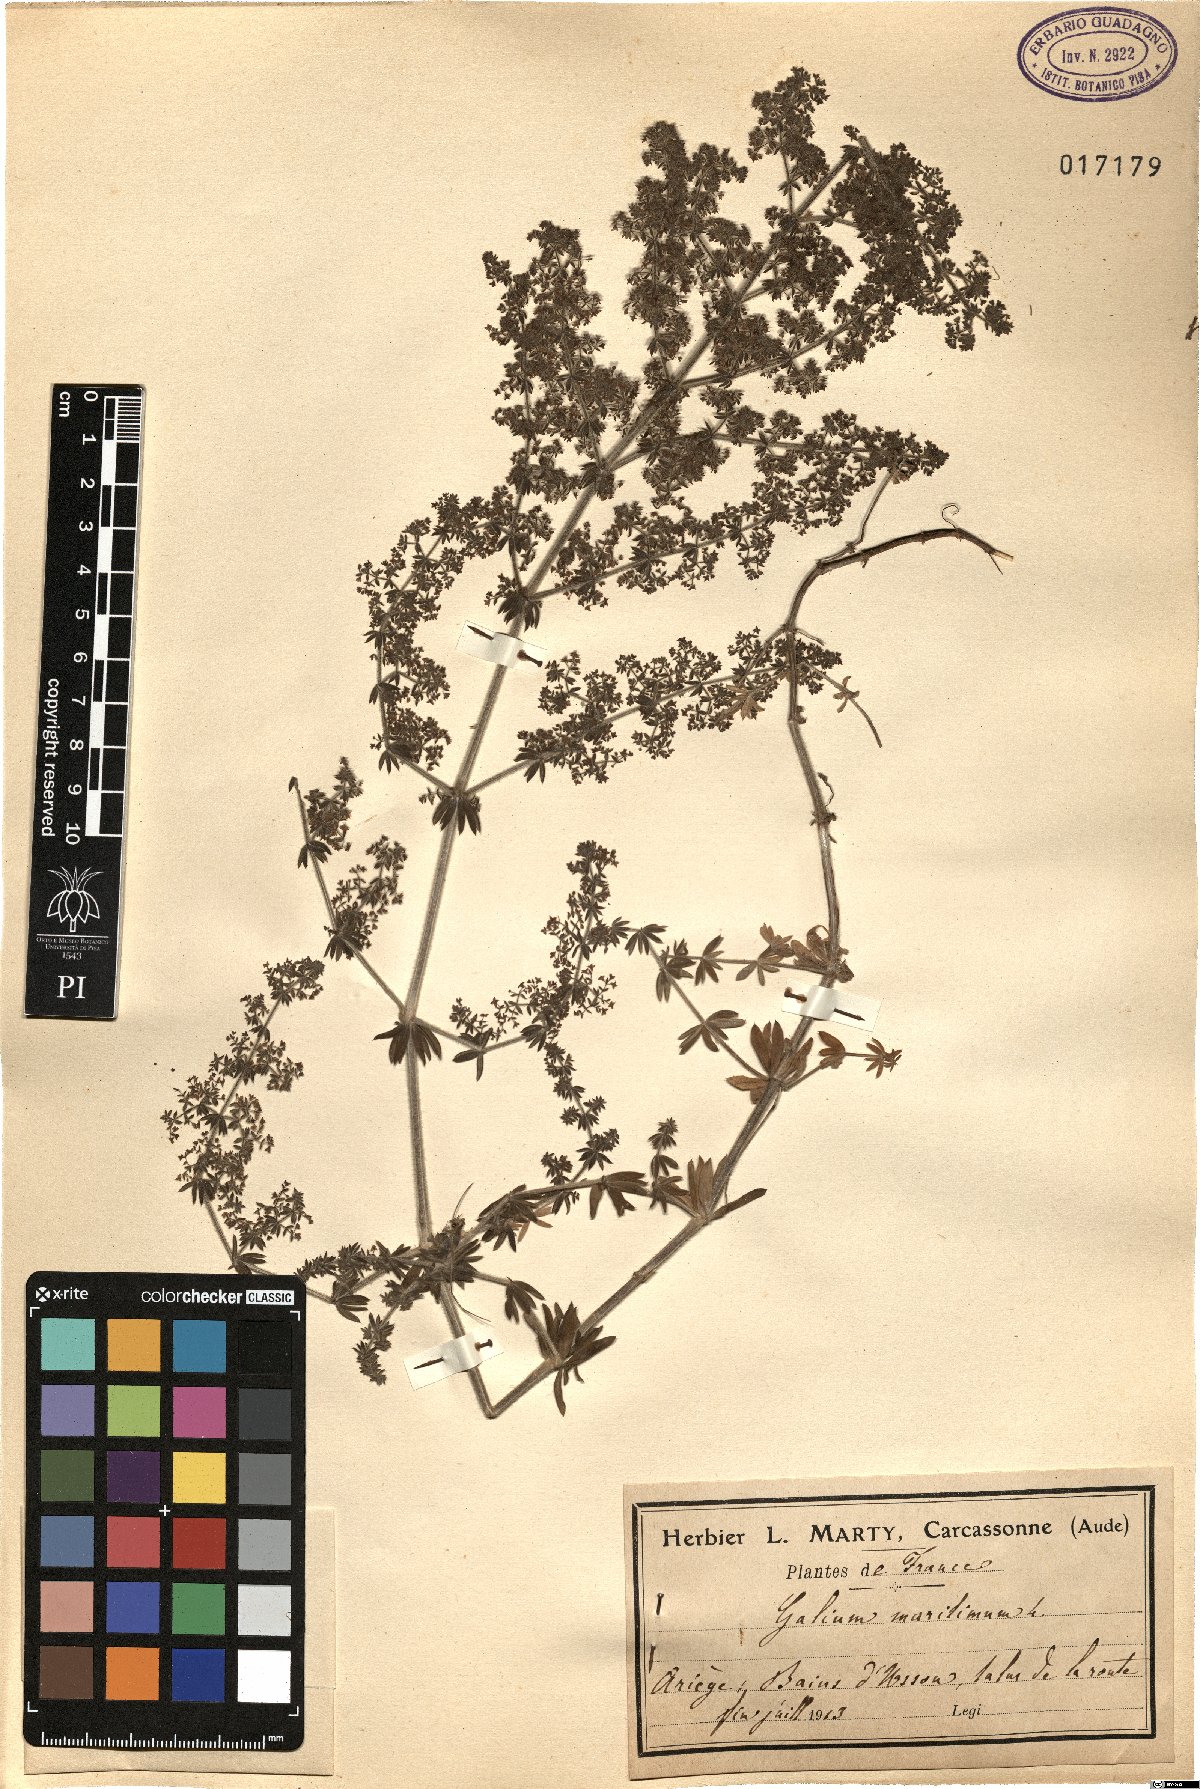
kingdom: Plantae
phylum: Tracheophyta
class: Magnoliopsida
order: Gentianales
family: Rubiaceae
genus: Galium
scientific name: Galium maritimum
